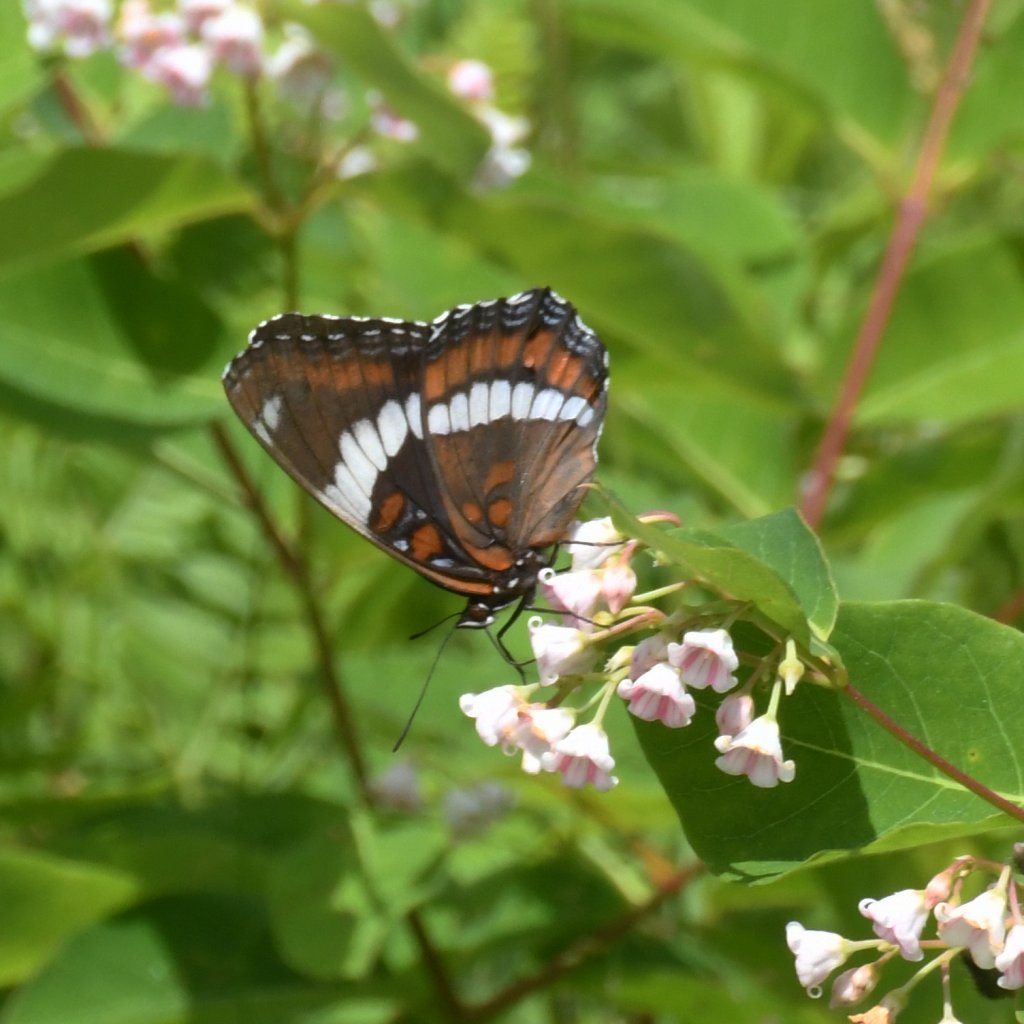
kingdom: Animalia
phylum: Arthropoda
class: Insecta
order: Lepidoptera
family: Nymphalidae
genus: Limenitis
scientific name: Limenitis arthemis
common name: Red-spotted Admiral
